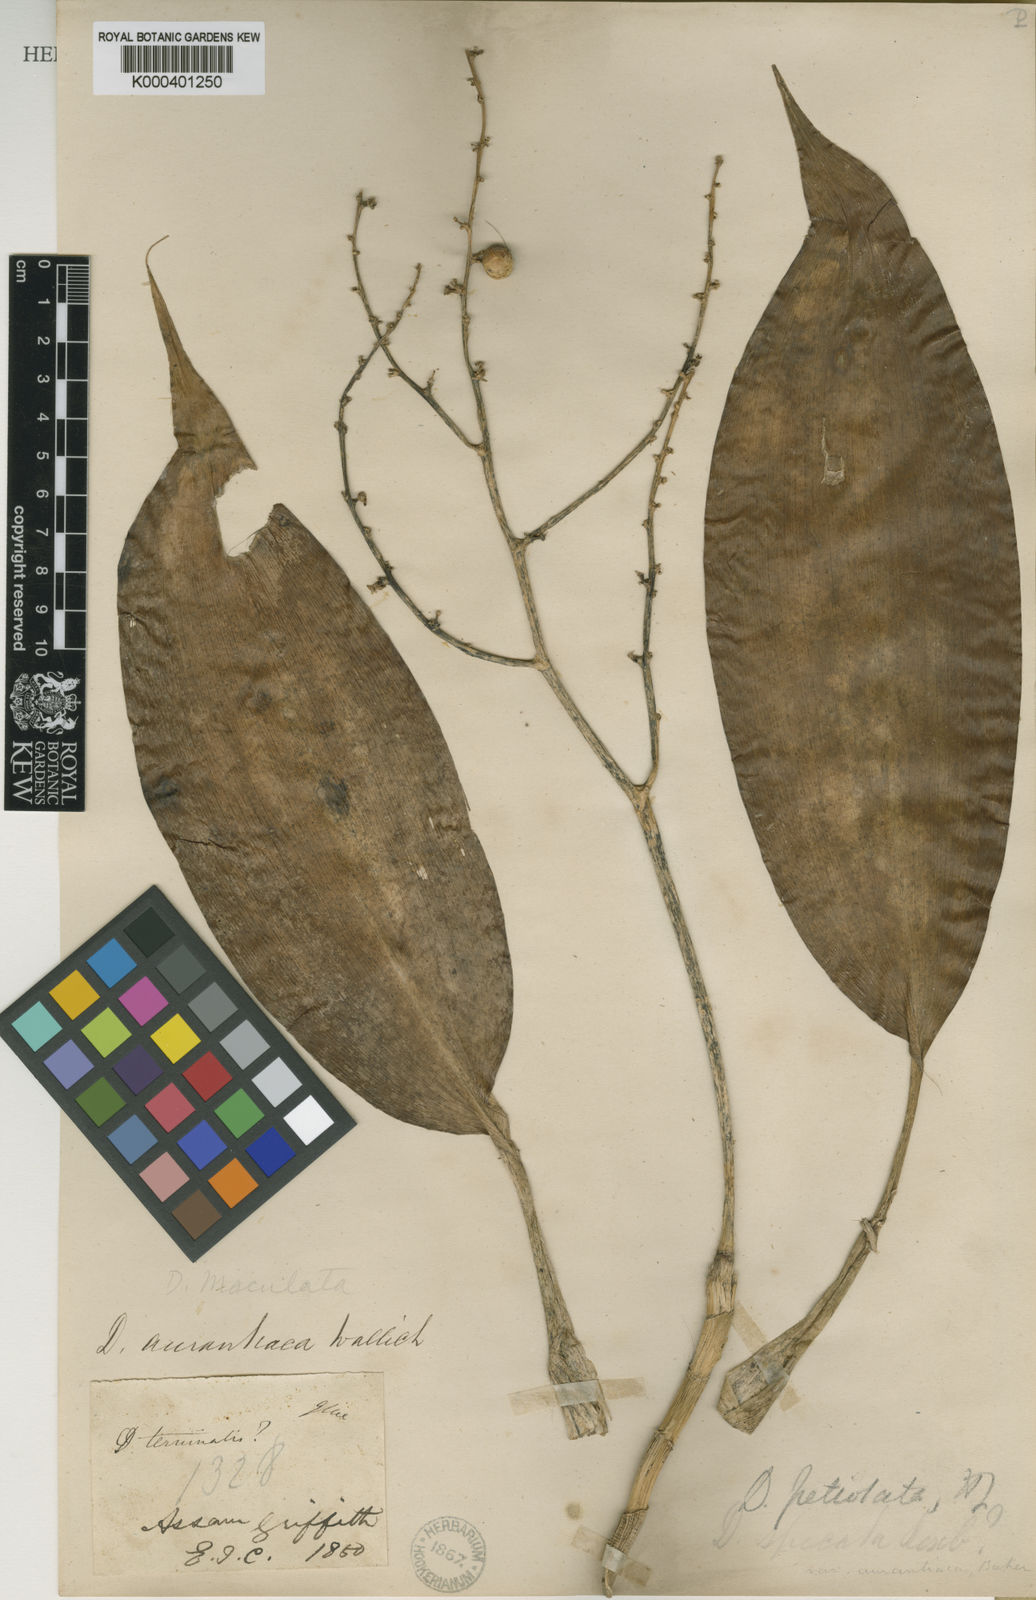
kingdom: Plantae
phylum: Tracheophyta
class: Liliopsida
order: Asparagales
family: Asparagaceae
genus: Dracaena
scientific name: Dracaena petiolata
